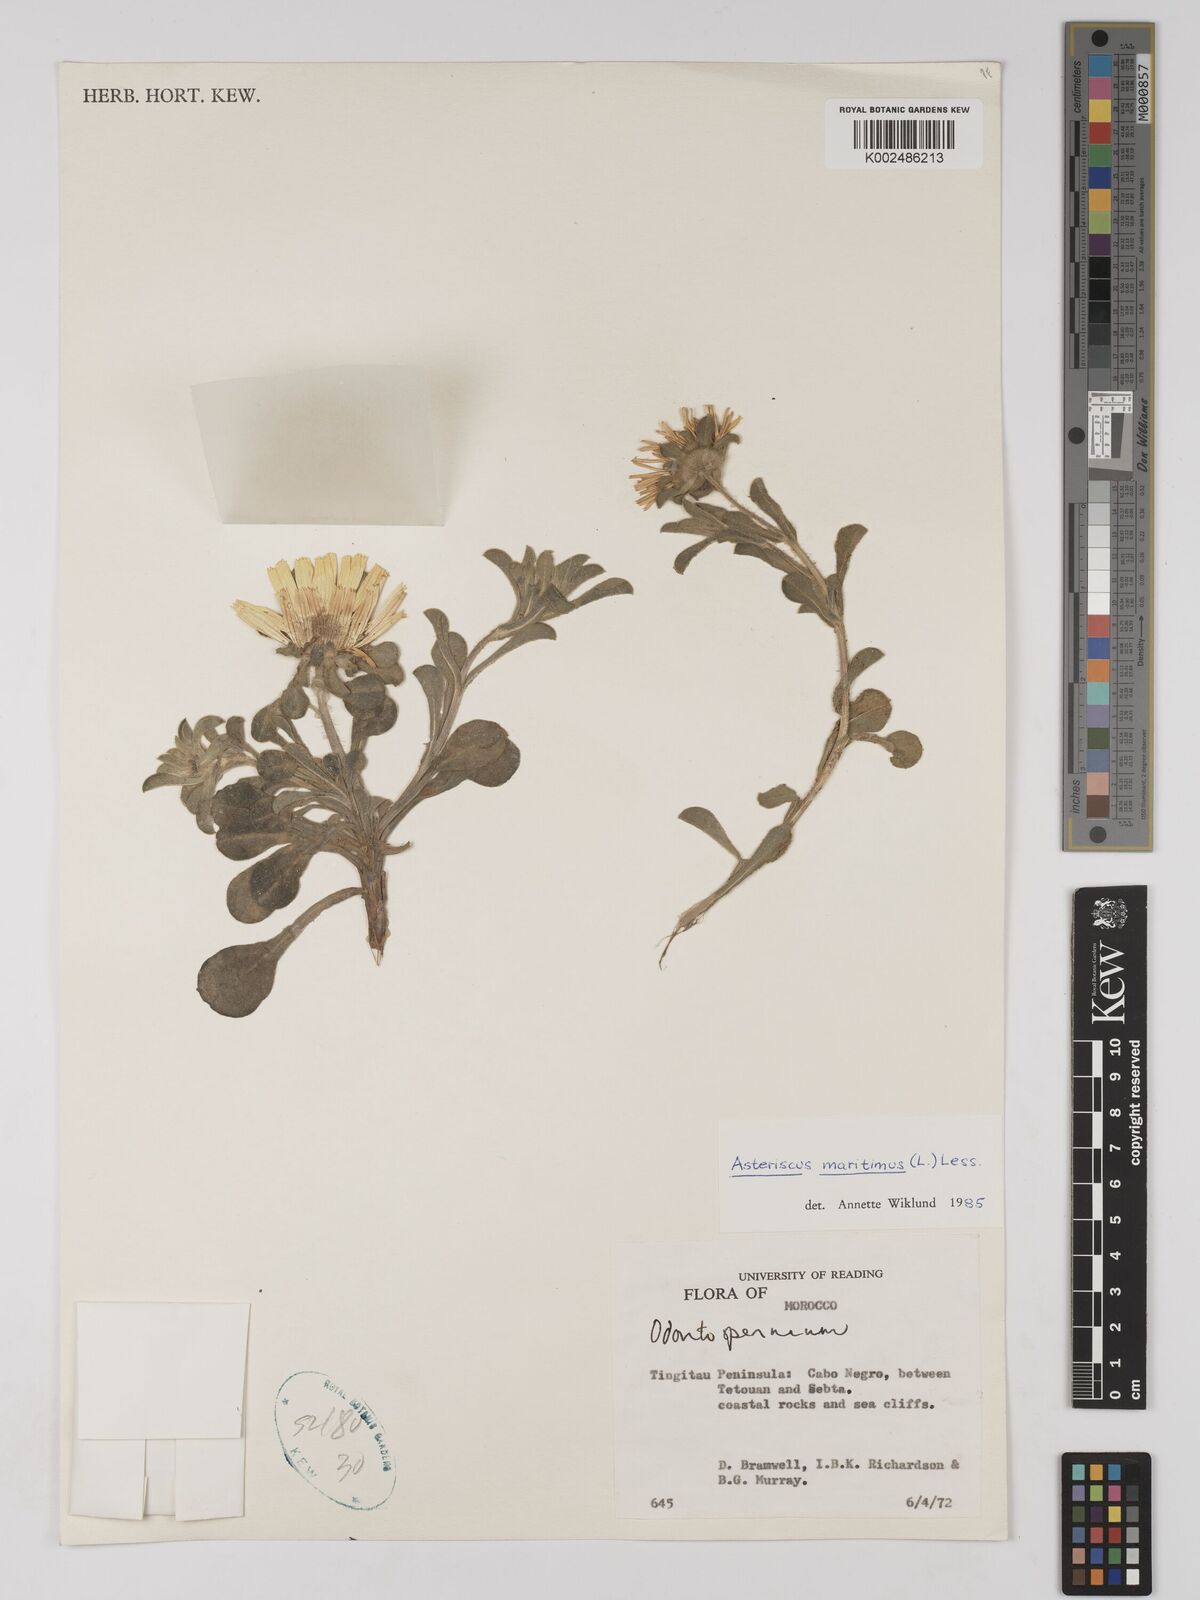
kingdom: Plantae
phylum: Tracheophyta
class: Magnoliopsida
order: Asterales
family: Asteraceae
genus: Pallenis
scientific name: Pallenis maritima
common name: Golden coin daisy
